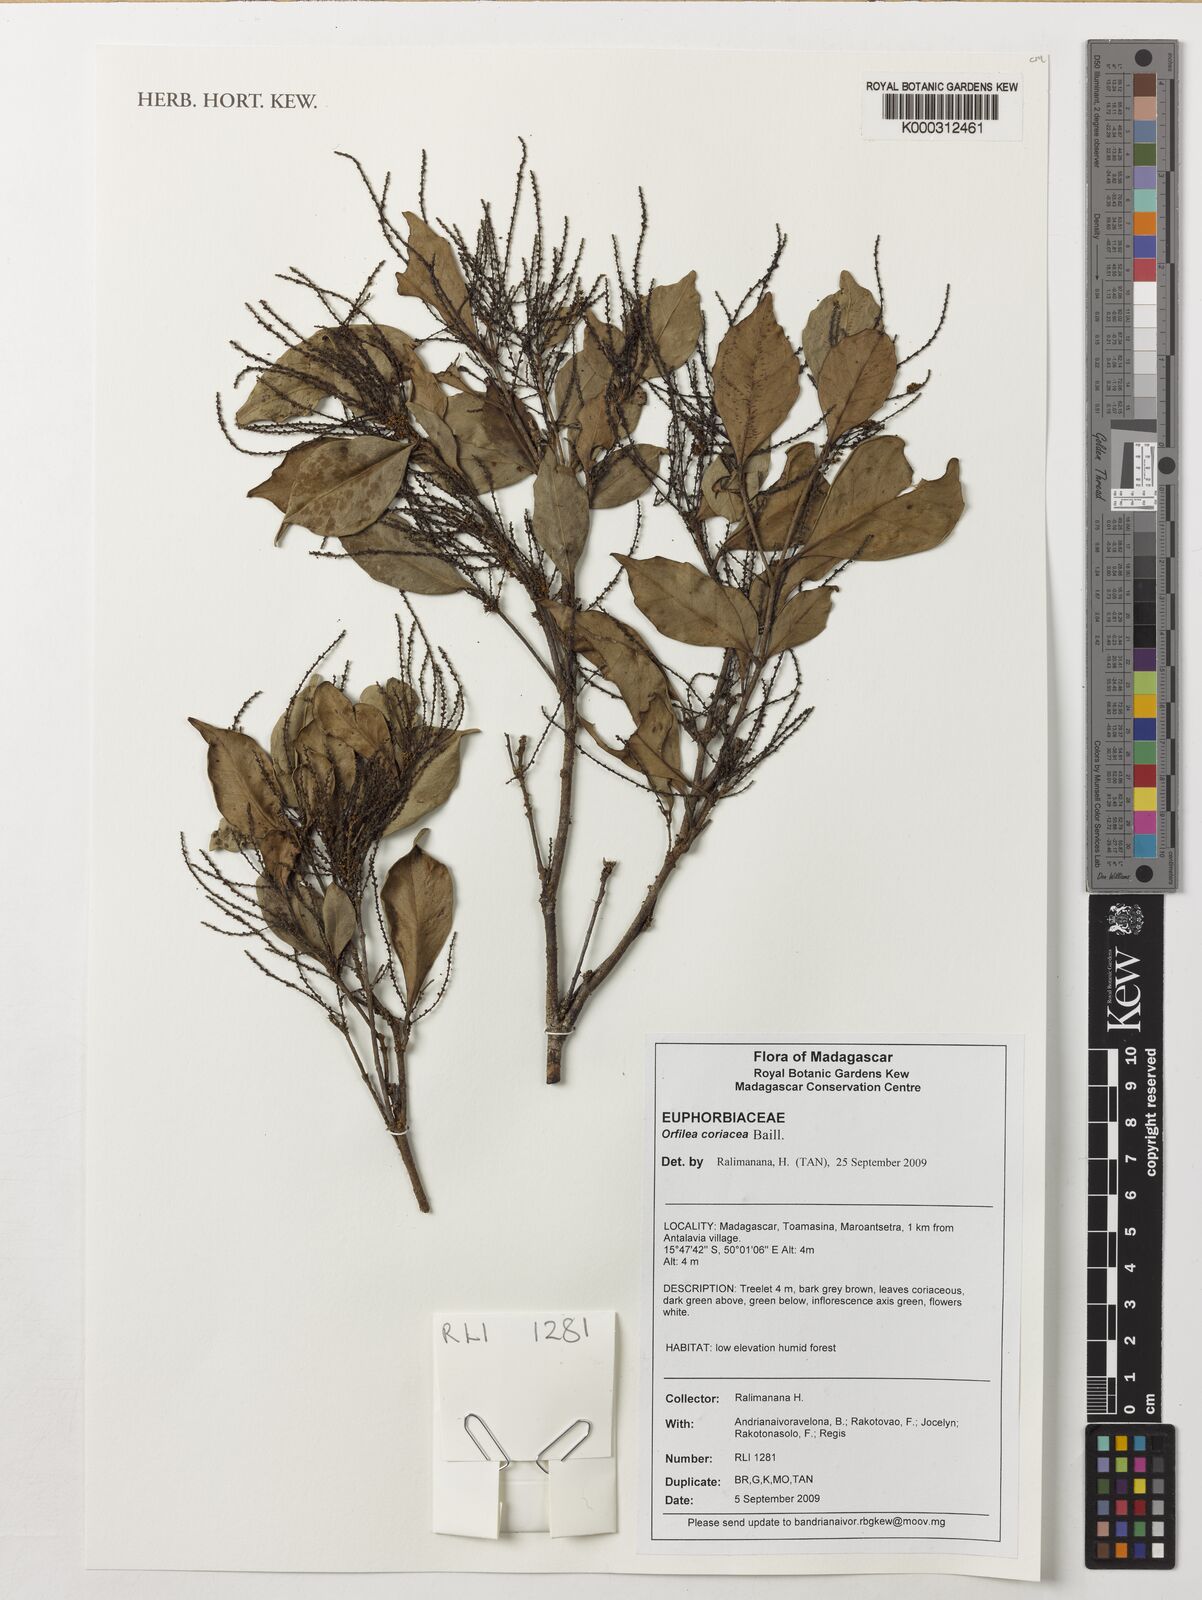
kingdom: Plantae
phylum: Tracheophyta
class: Magnoliopsida
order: Malpighiales
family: Euphorbiaceae
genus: Orfilea
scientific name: Orfilea coriacea
